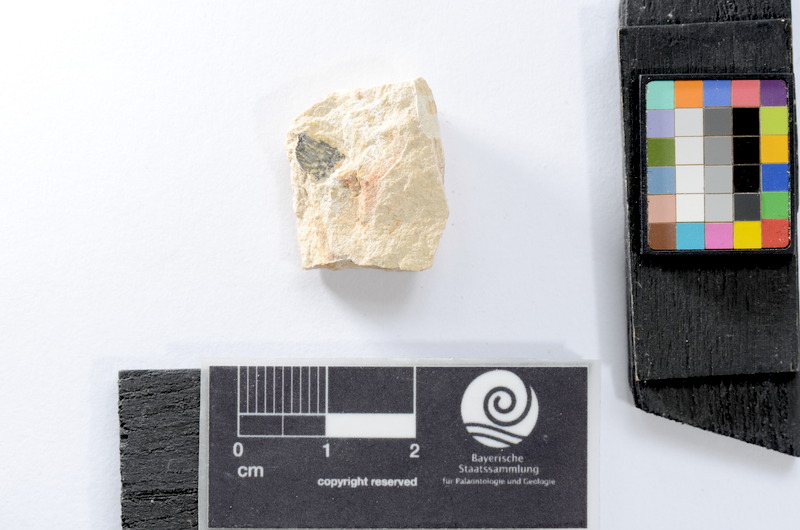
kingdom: Animalia
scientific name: Animalia
